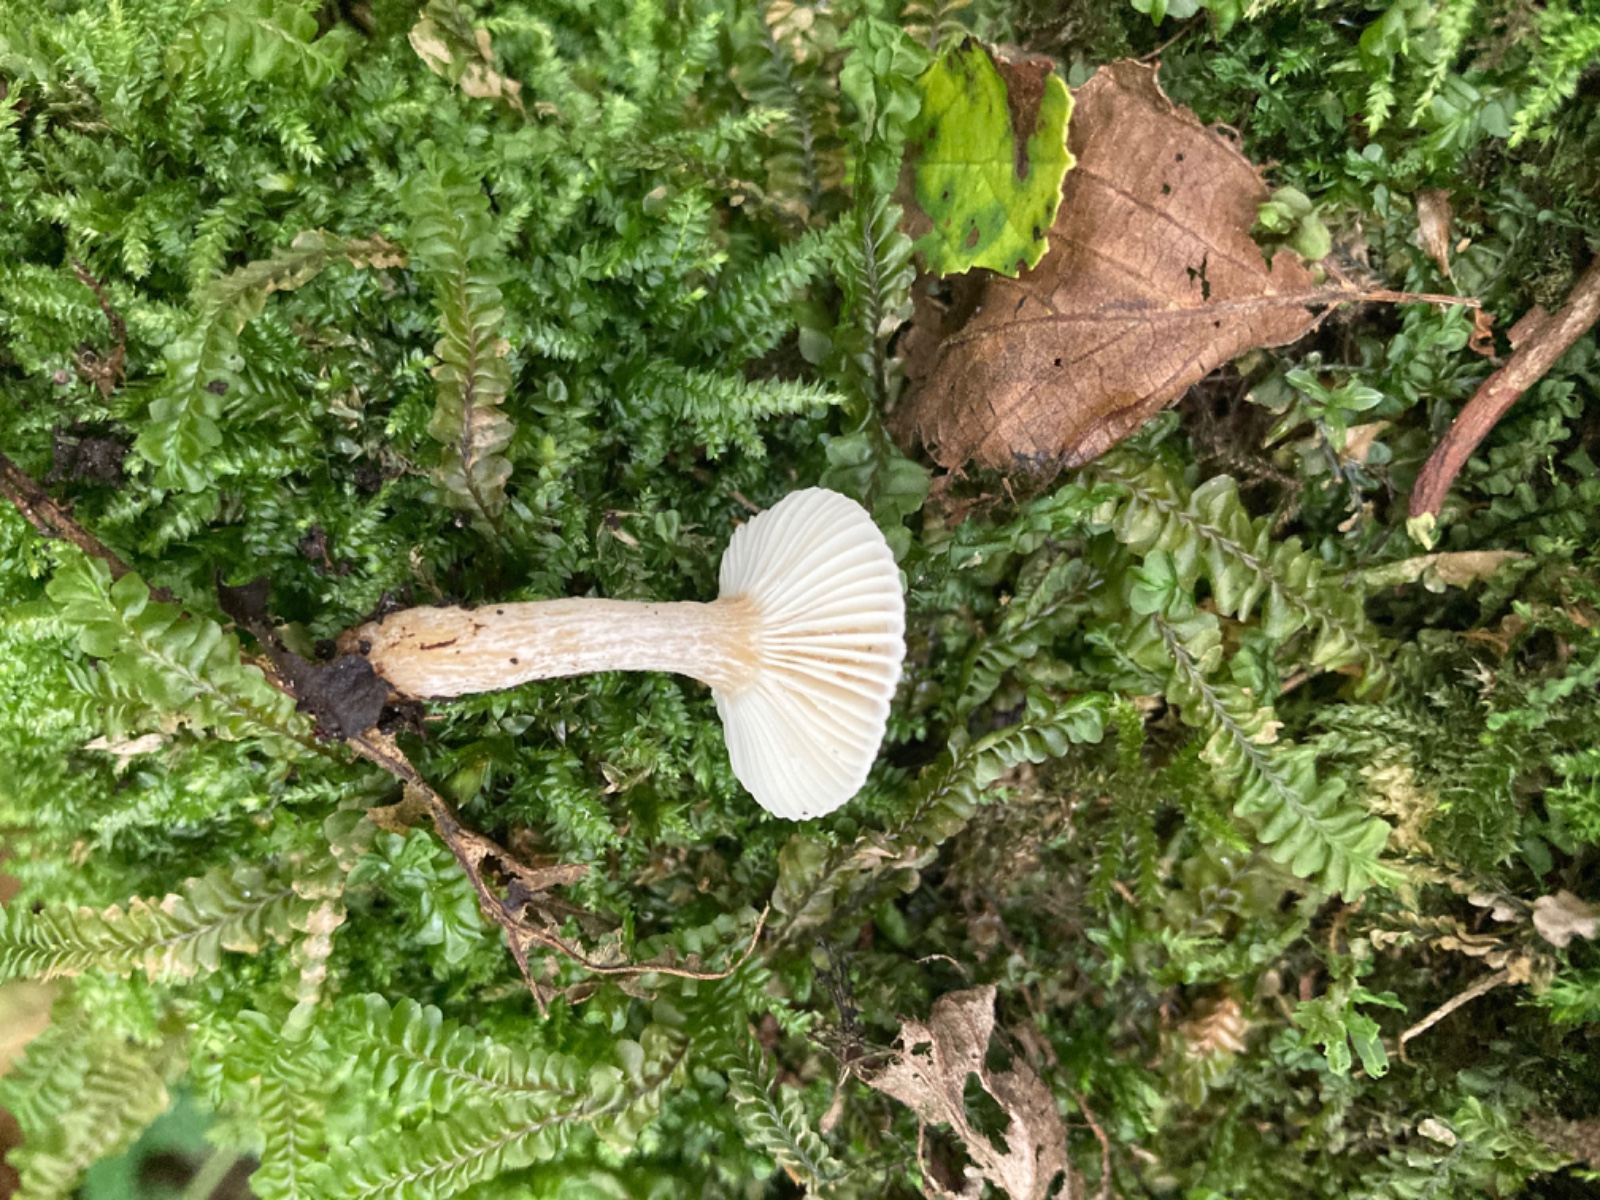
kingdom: Fungi
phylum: Basidiomycota
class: Agaricomycetes
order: Russulales
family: Russulaceae
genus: Russula
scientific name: Russula alnetorum
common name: elle-skørhat
